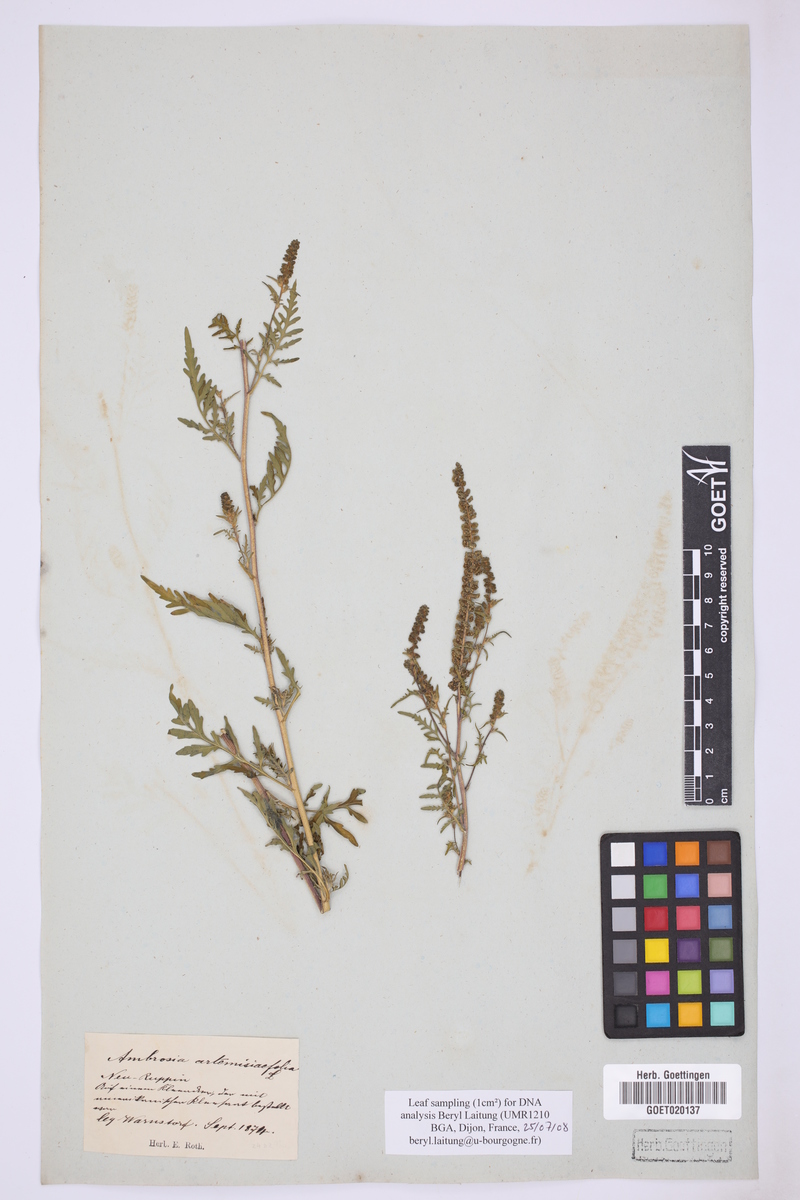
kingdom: Plantae
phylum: Tracheophyta
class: Magnoliopsida
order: Asterales
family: Asteraceae
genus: Ambrosia
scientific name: Ambrosia artemisiifolia
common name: Annual ragweed
